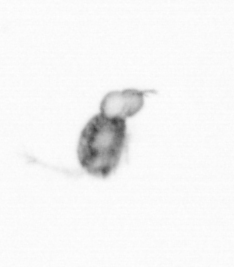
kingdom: Animalia
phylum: Arthropoda
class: Copepoda
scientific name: Copepoda
